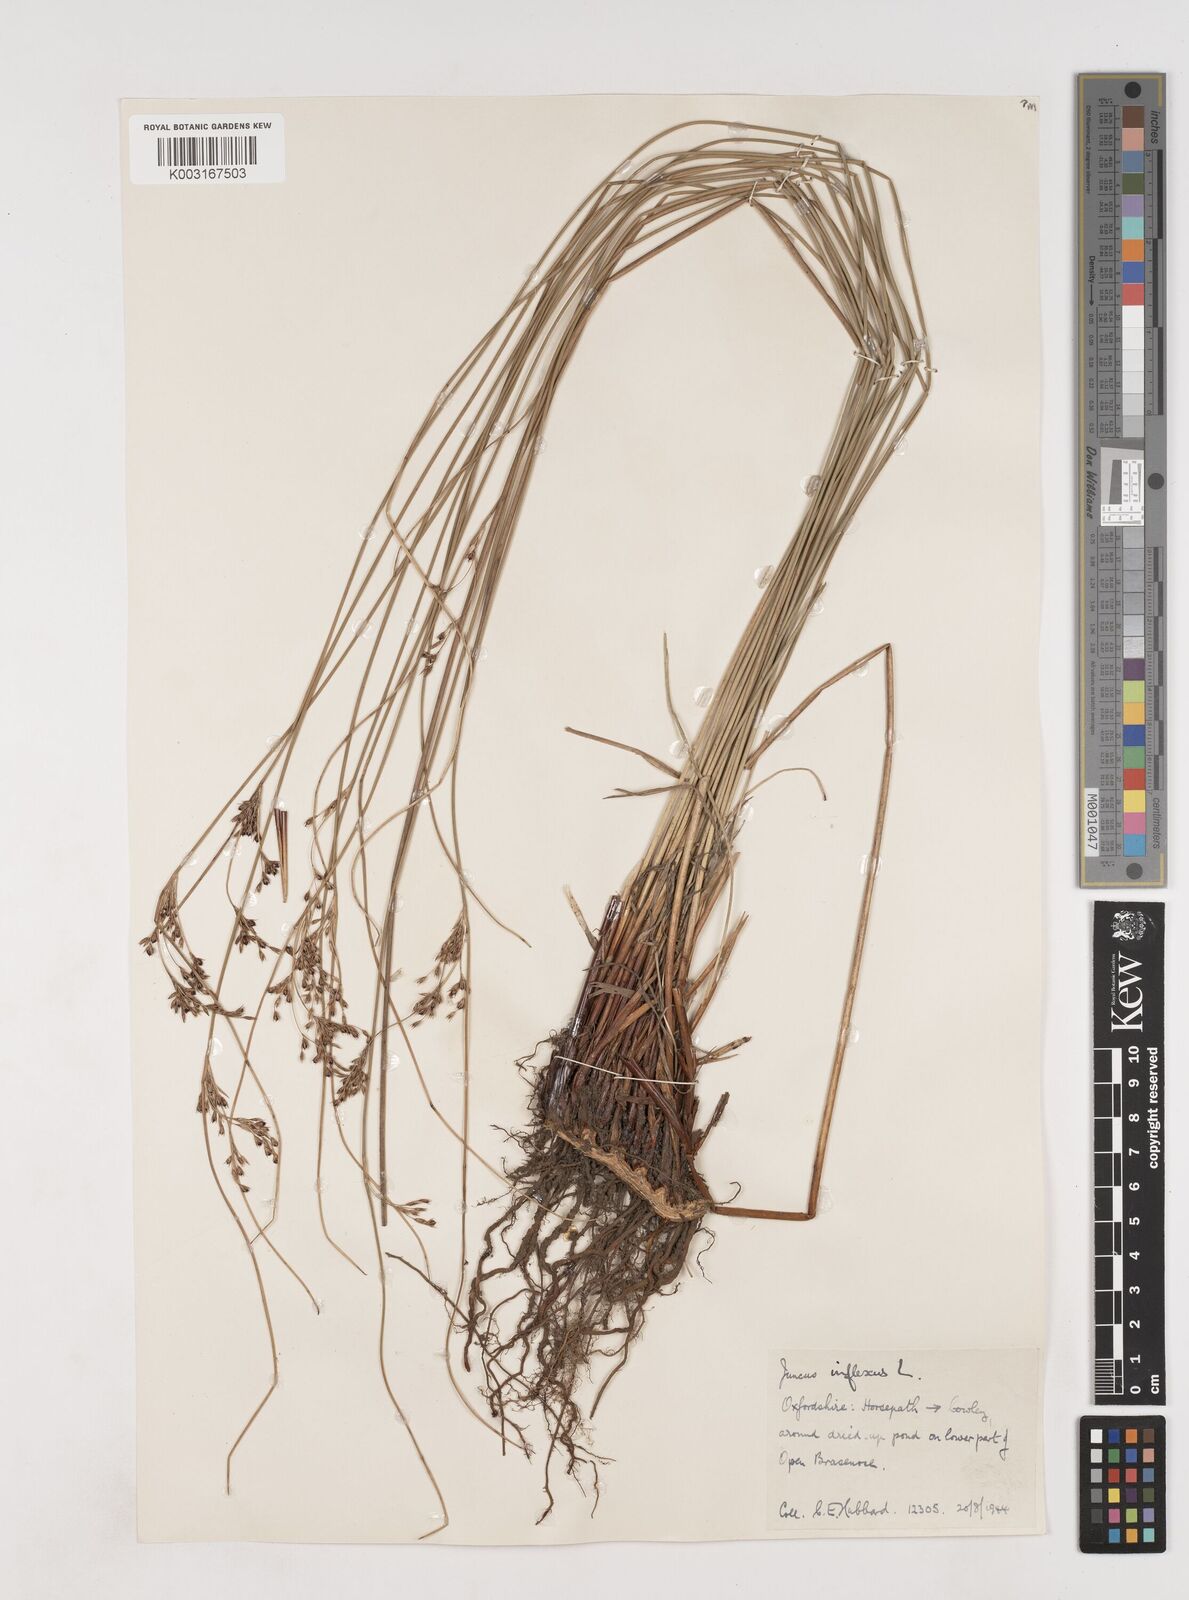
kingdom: Plantae
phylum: Tracheophyta
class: Liliopsida
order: Poales
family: Juncaceae
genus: Juncus
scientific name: Juncus inflexus
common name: Hard rush
